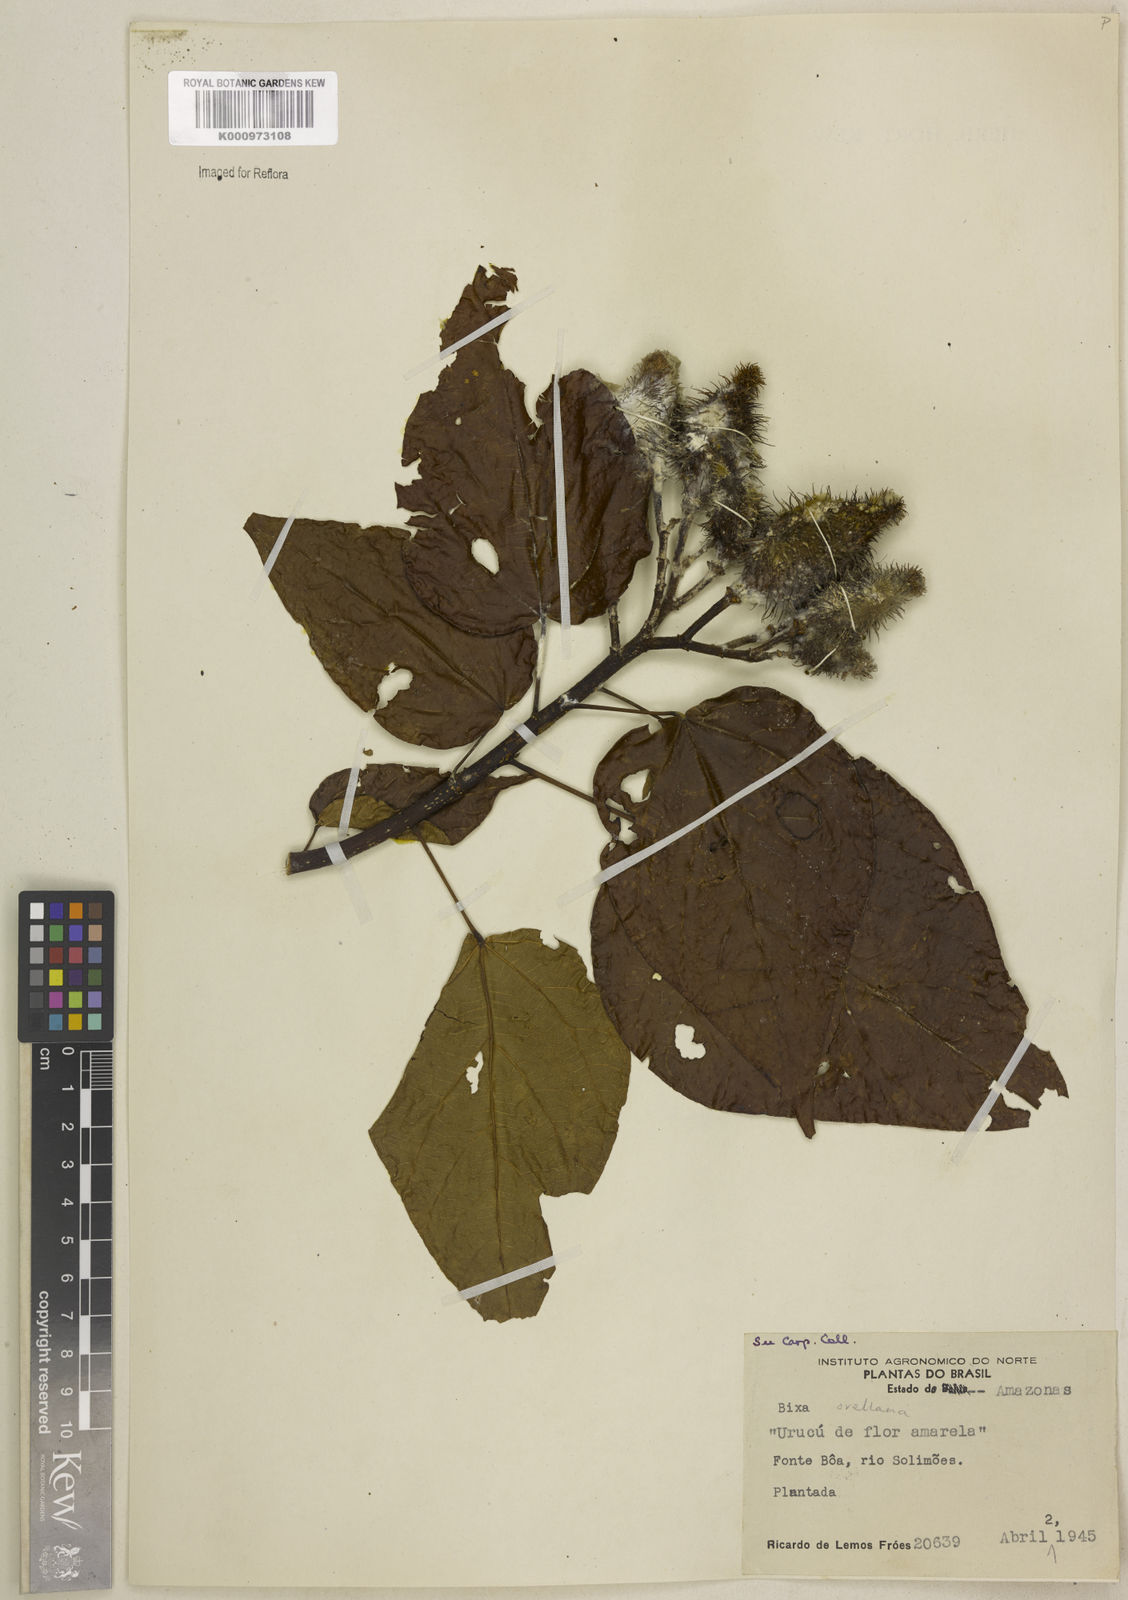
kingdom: Plantae
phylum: Tracheophyta
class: Magnoliopsida
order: Malvales
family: Bixaceae
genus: Bixa
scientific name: Bixa urucurana
